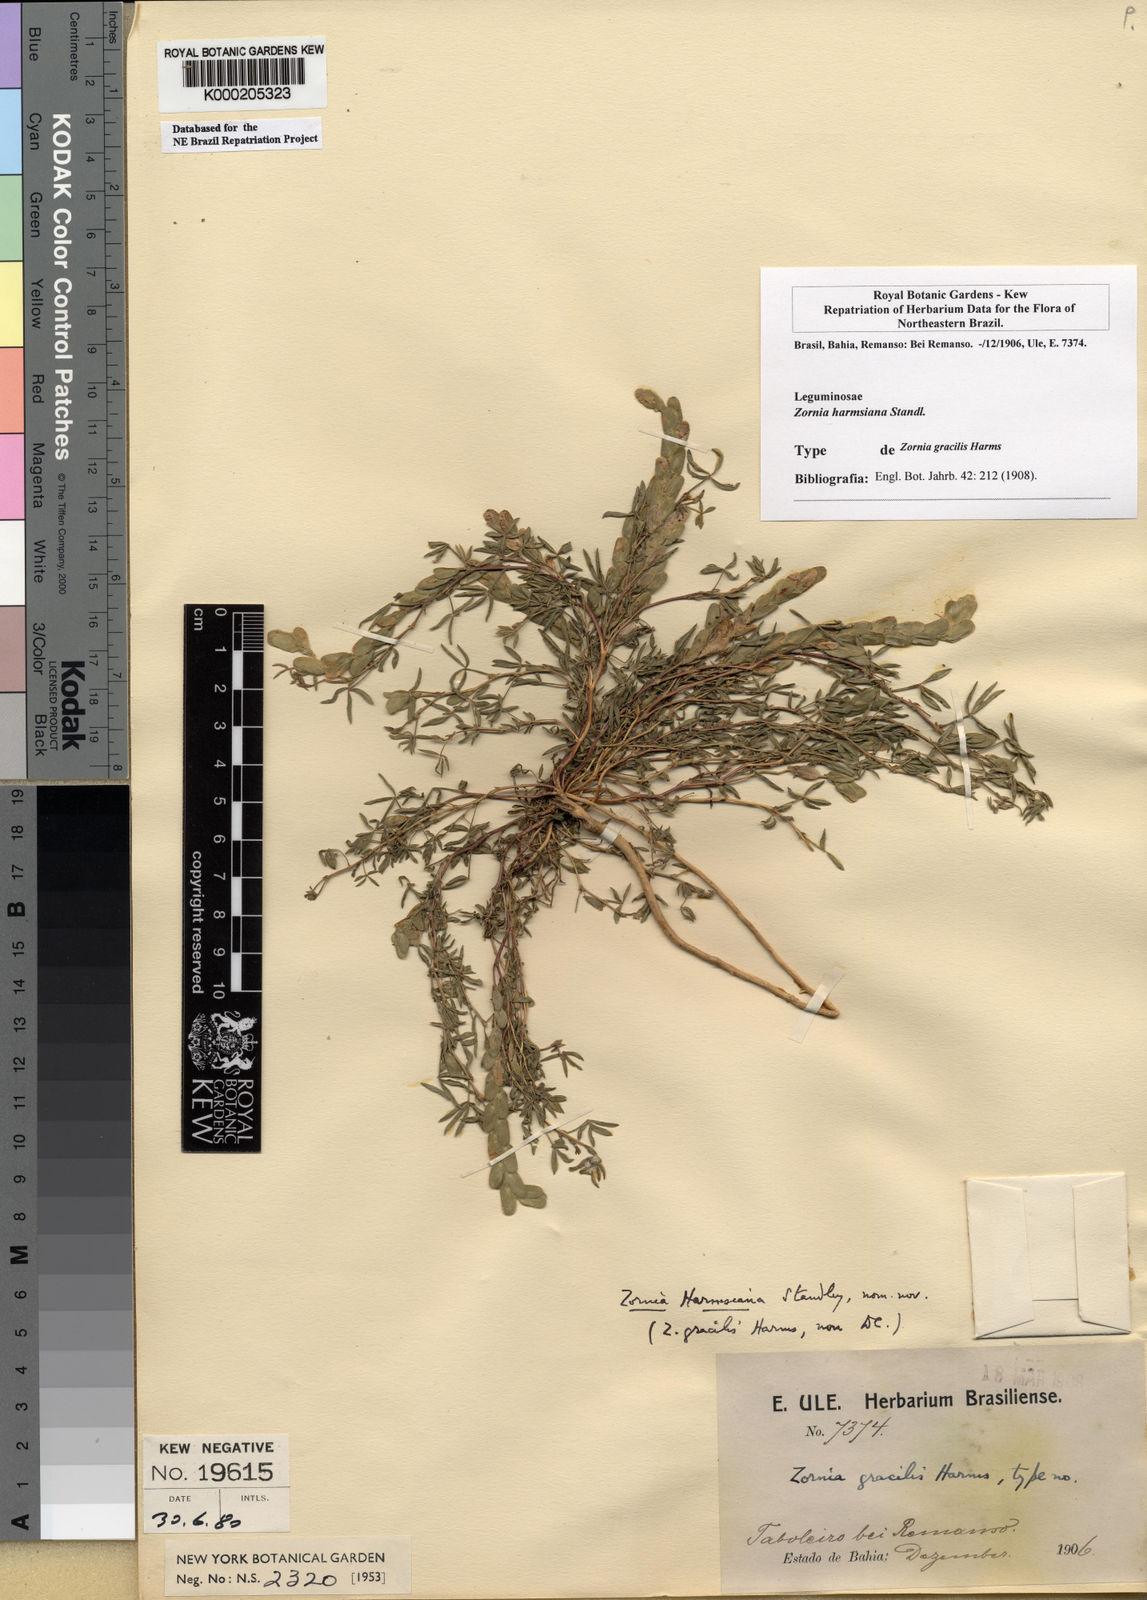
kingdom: Plantae
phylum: Tracheophyta
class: Magnoliopsida
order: Fabales
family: Fabaceae
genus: Zornia
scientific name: Zornia harmsiana
